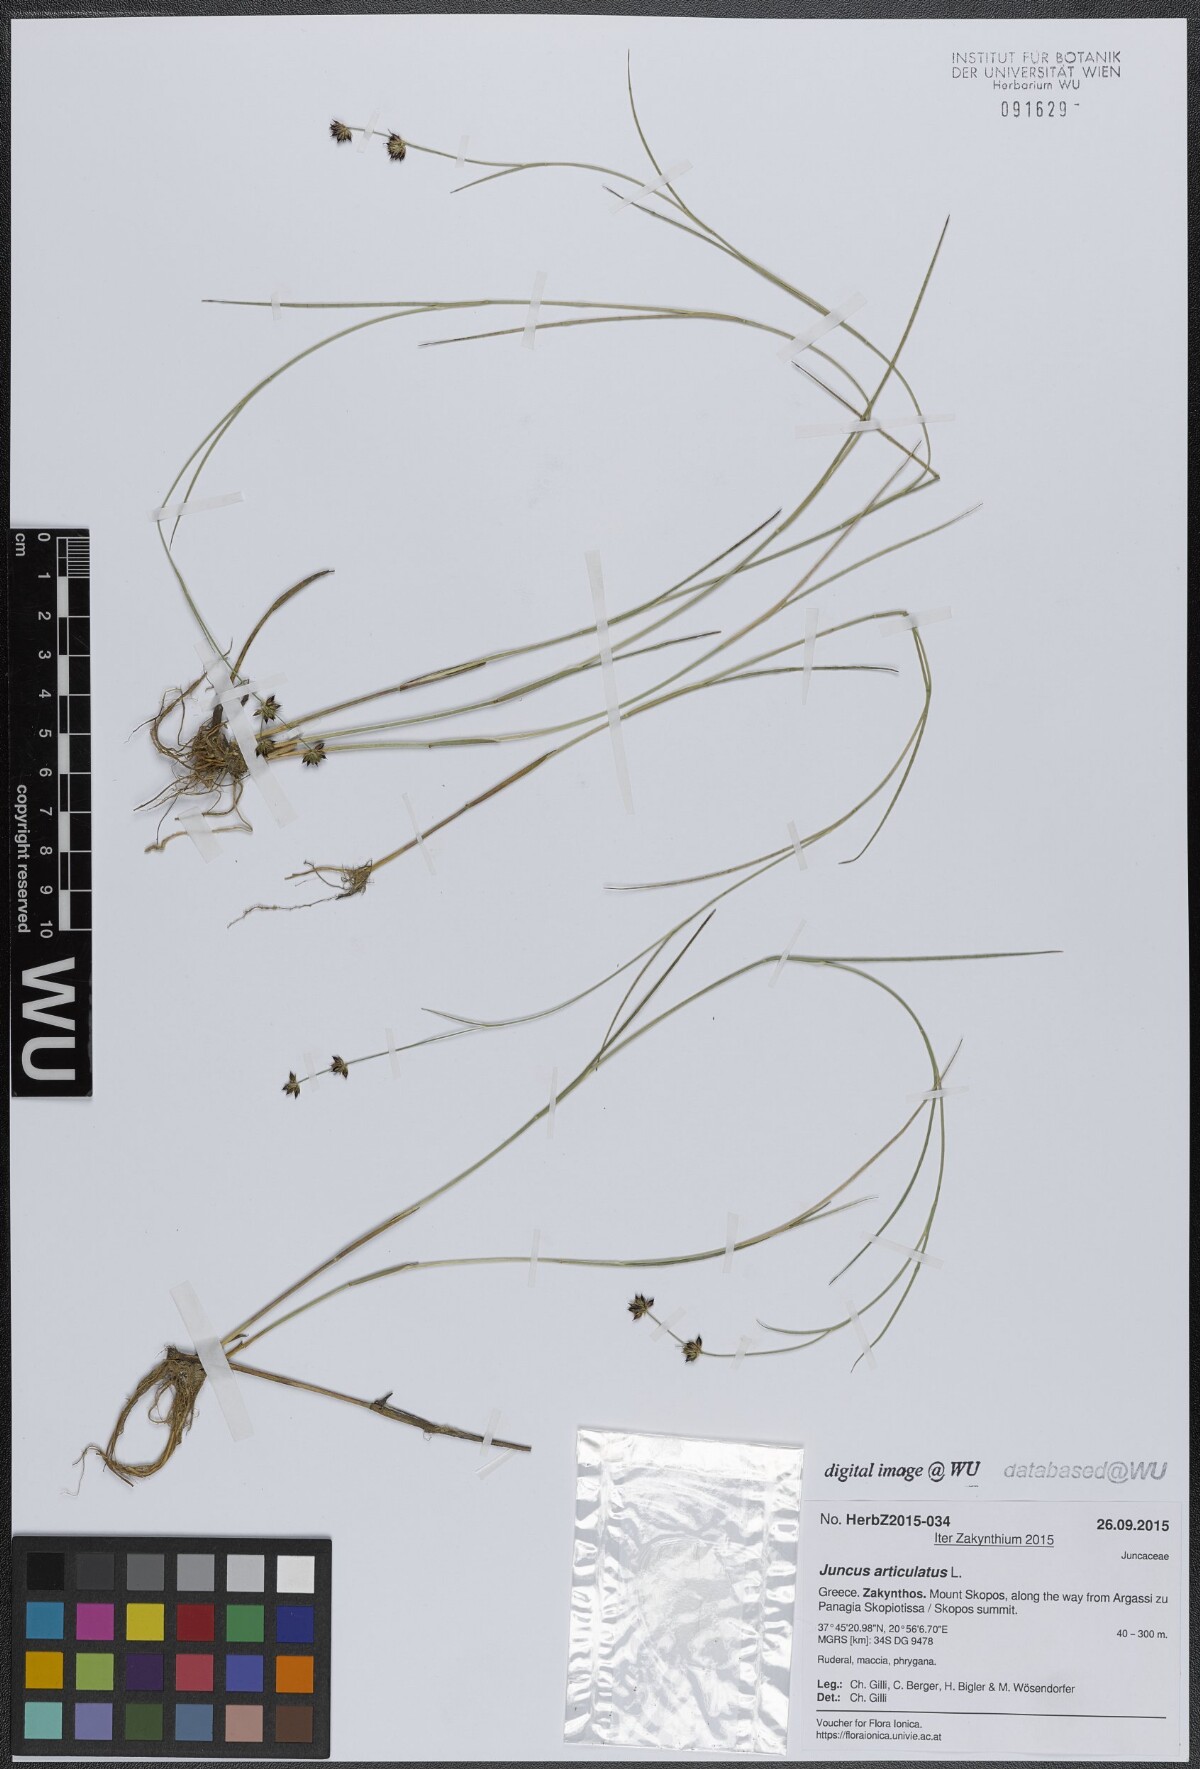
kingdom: Plantae
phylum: Tracheophyta
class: Liliopsida
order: Poales
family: Juncaceae
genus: Juncus
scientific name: Juncus articulatus
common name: Jointed rush
